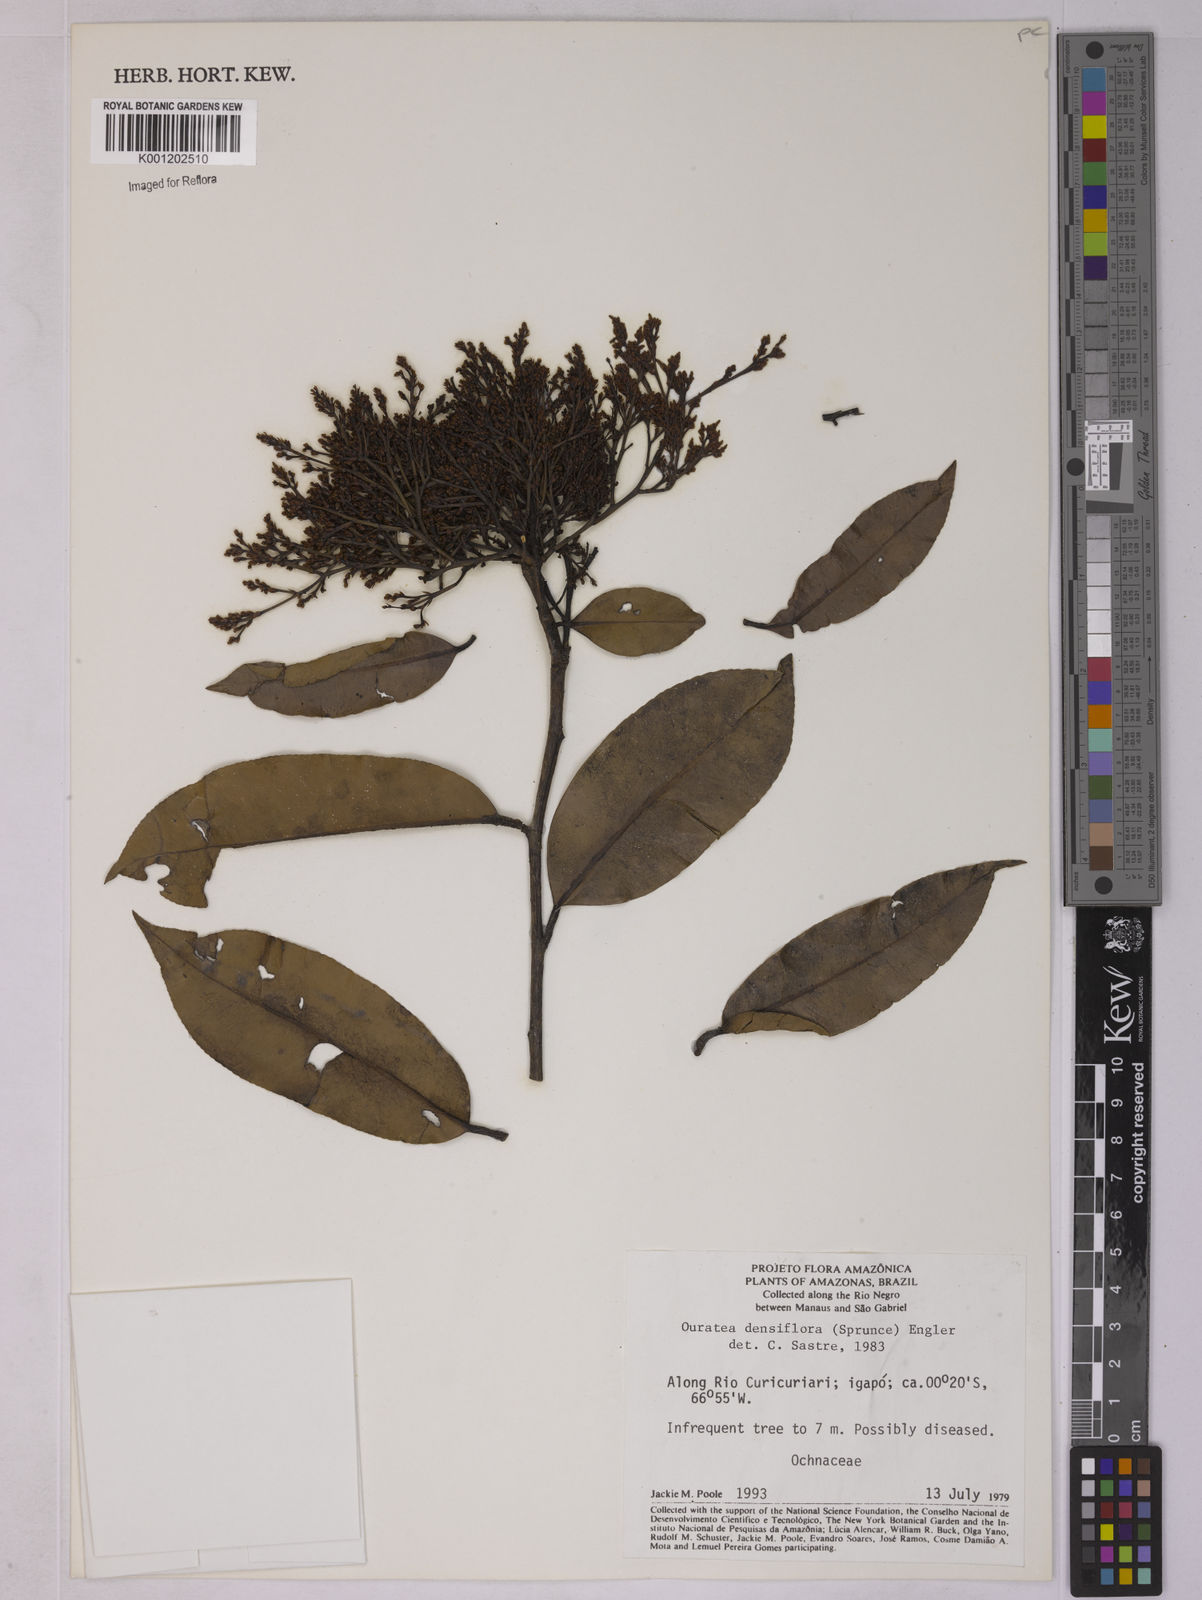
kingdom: Plantae
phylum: Tracheophyta
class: Magnoliopsida
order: Malpighiales
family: Ochnaceae
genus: Ouratea
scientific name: Ouratea pilgeri
